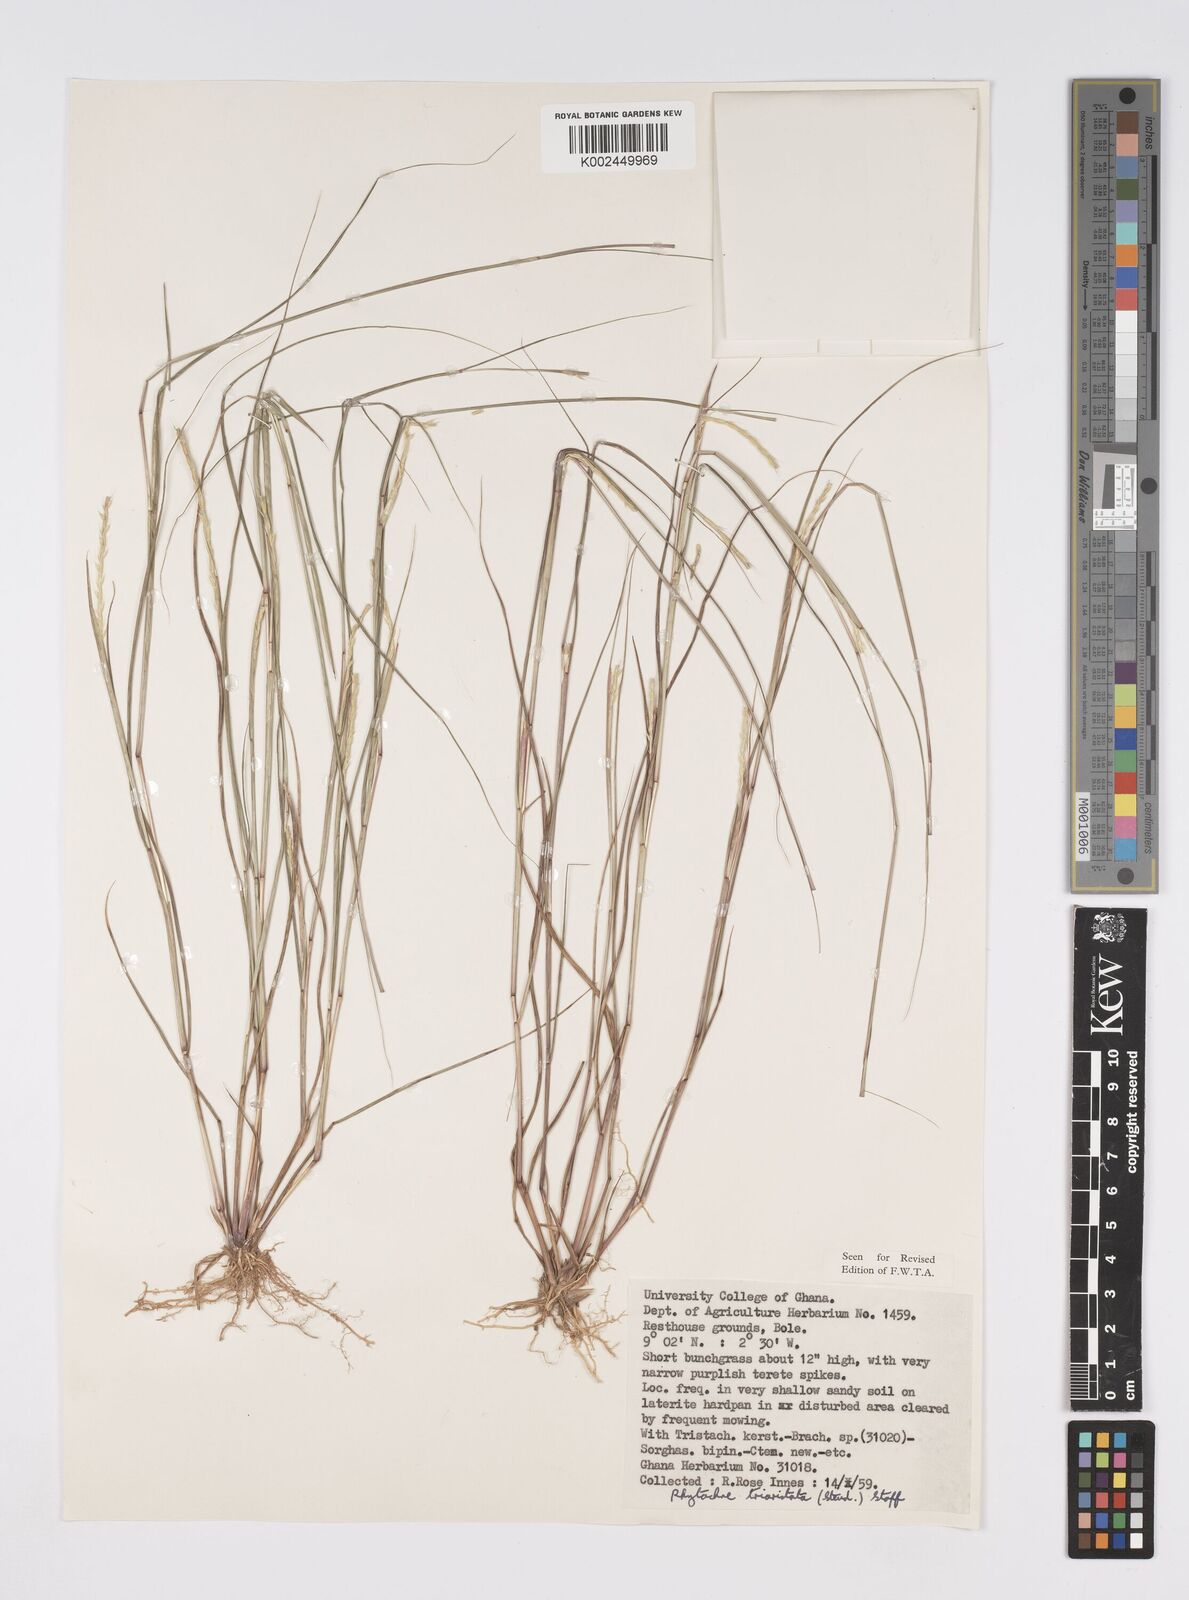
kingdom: Plantae
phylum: Tracheophyta
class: Liliopsida
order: Poales
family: Poaceae
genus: Rhytachne
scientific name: Rhytachne triaristata
